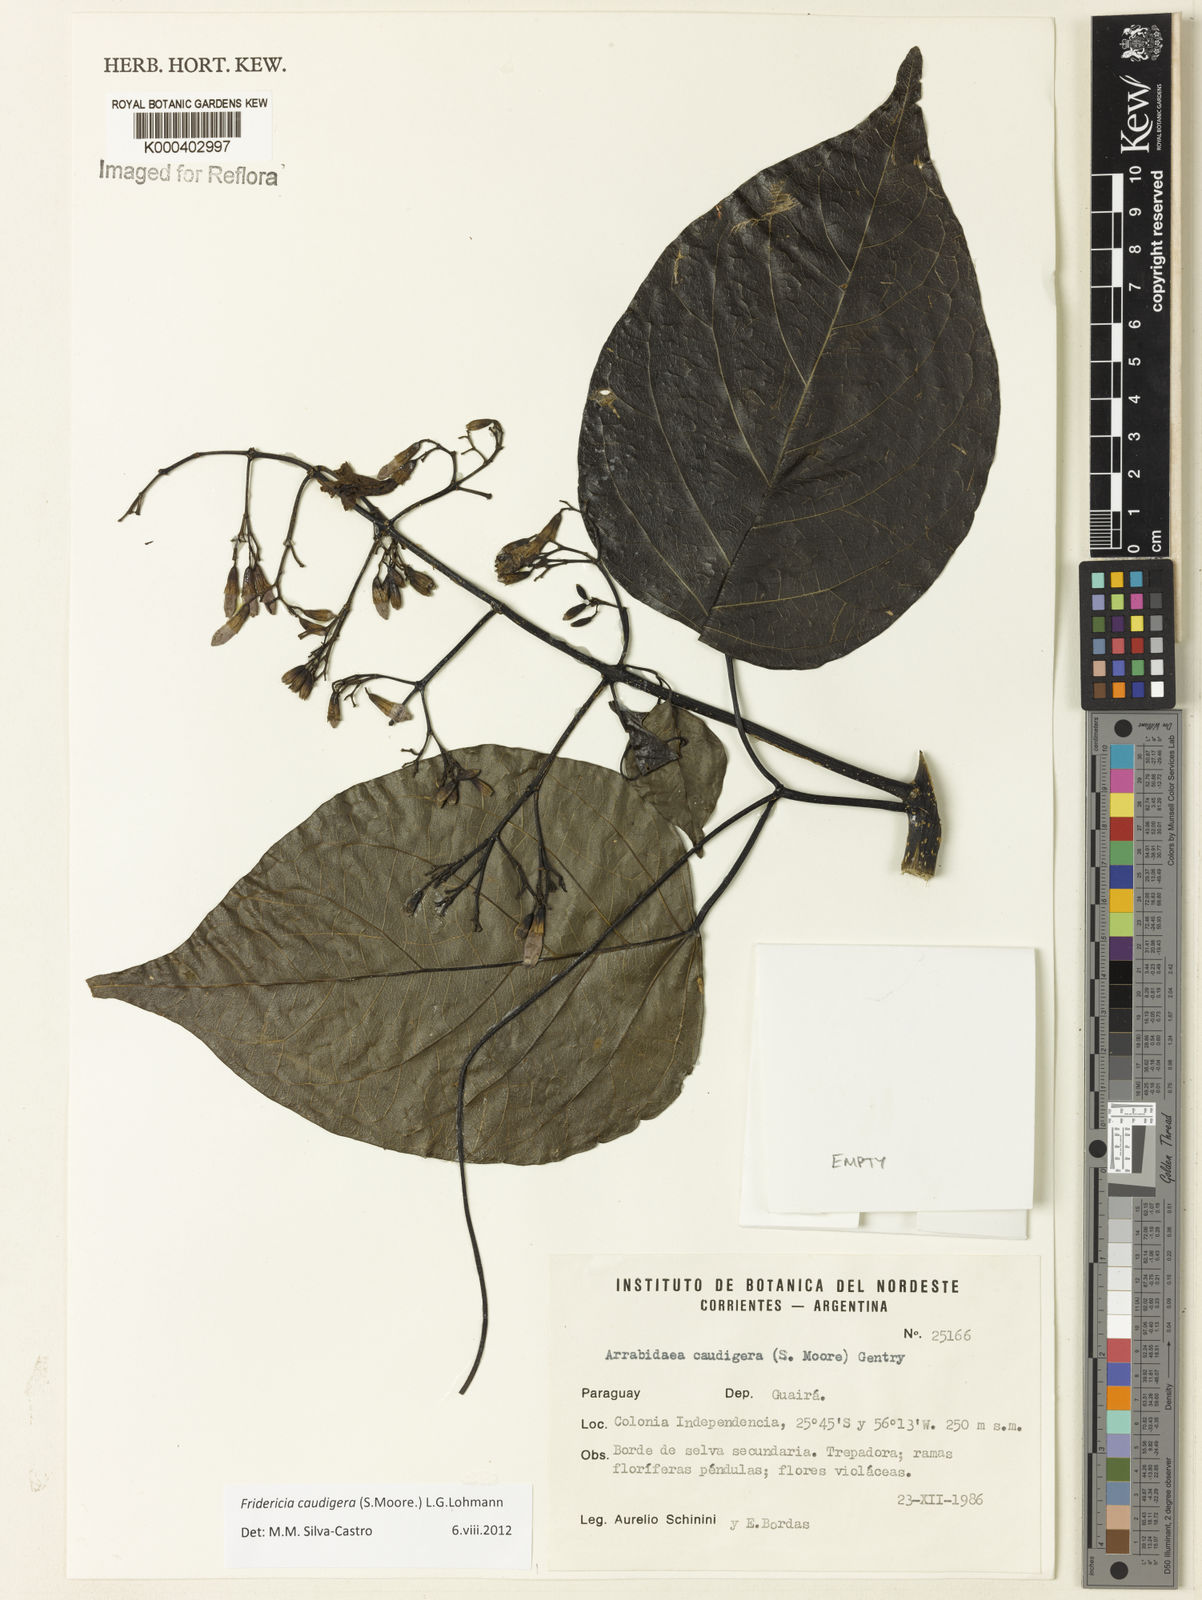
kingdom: Plantae
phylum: Tracheophyta
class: Magnoliopsida
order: Lamiales
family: Bignoniaceae
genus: Fridericia
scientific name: Fridericia caudigera
